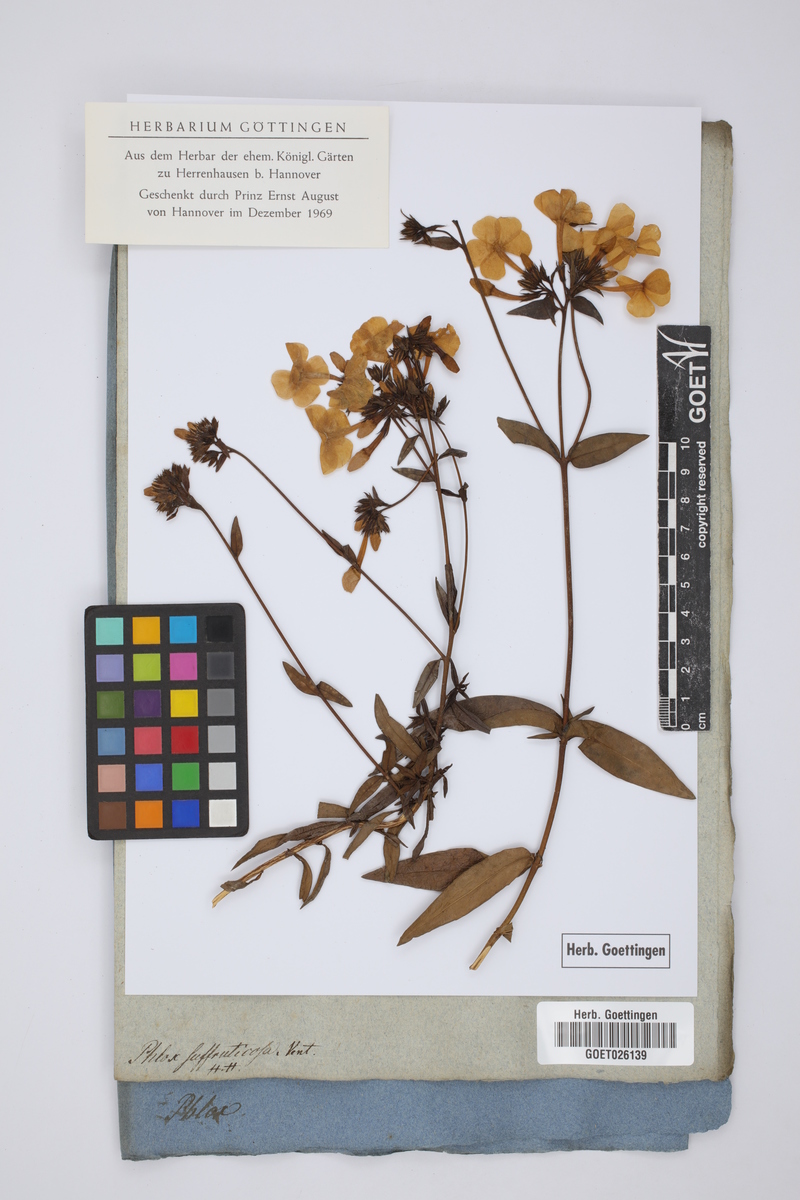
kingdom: Plantae
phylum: Tracheophyta
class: Magnoliopsida
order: Ericales
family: Polemoniaceae
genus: Phlox
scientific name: Phlox carolina
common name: Thick-leaf phlox
